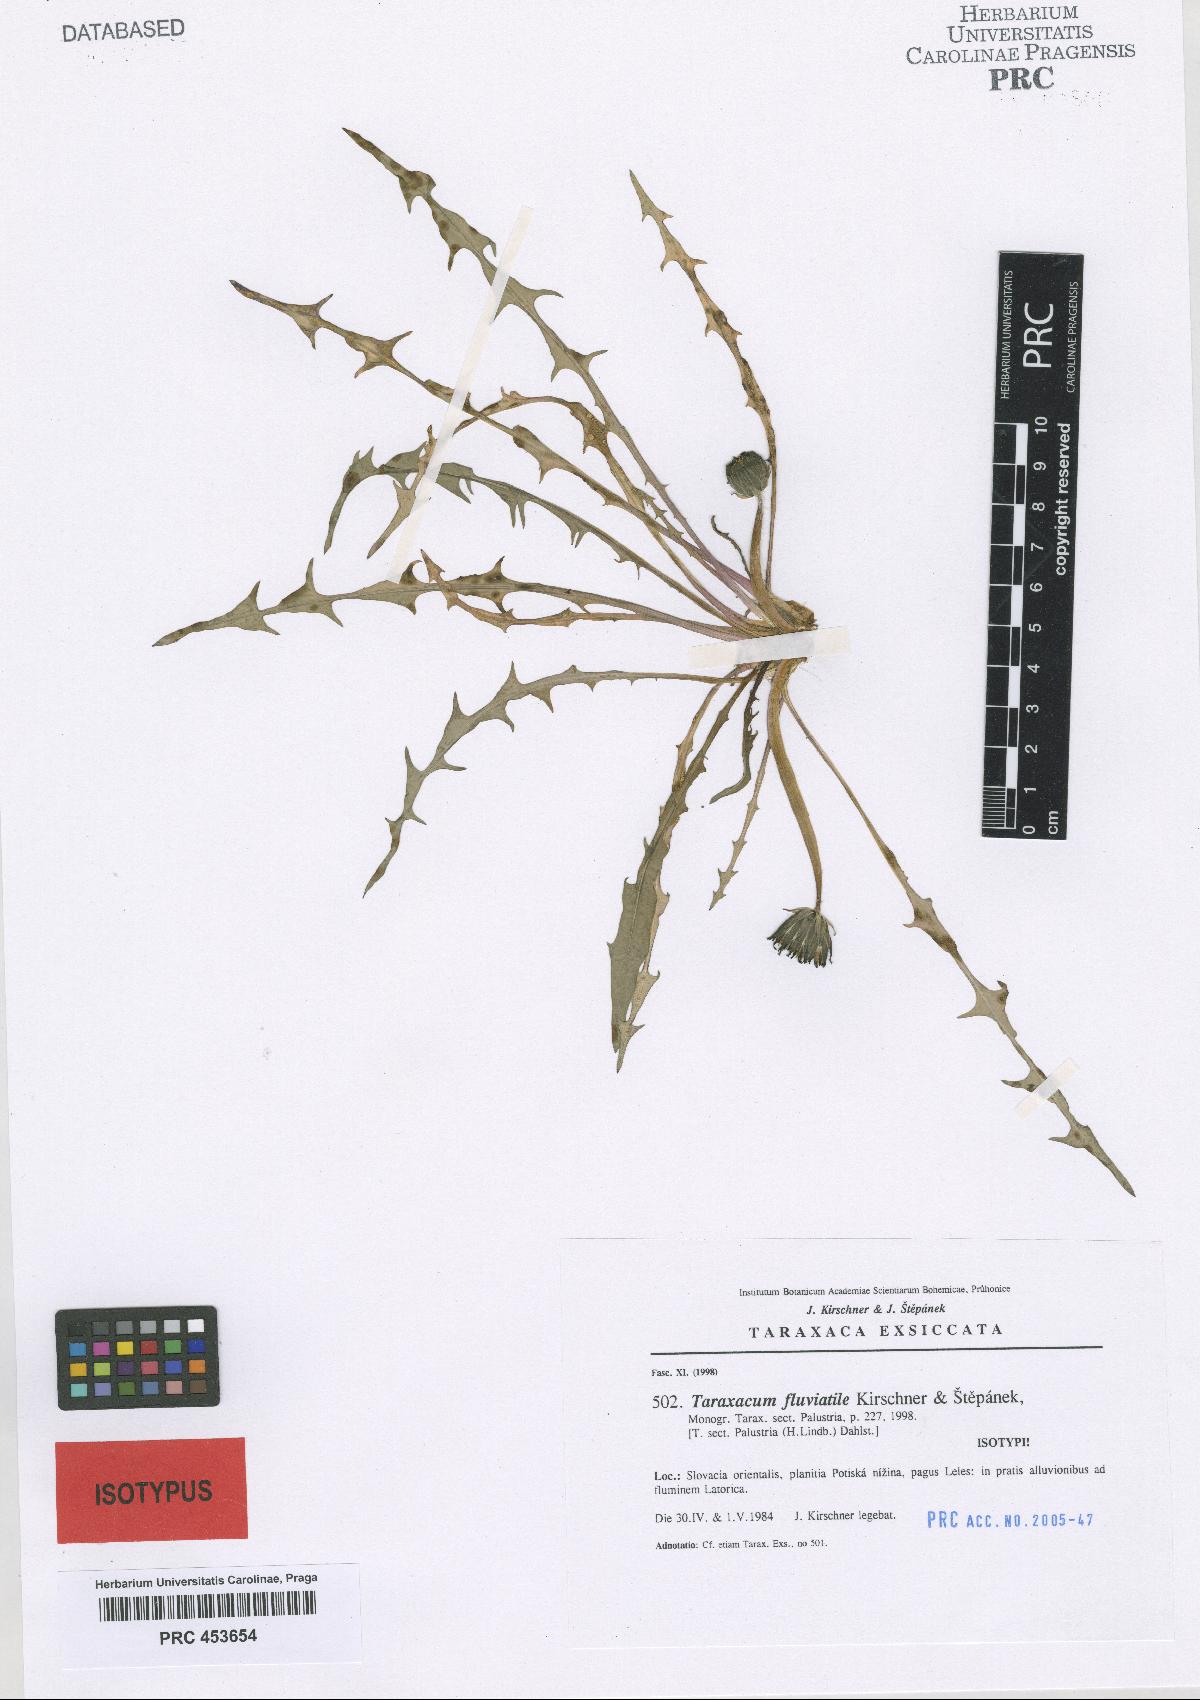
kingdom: Plantae
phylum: Tracheophyta
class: Magnoliopsida
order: Asterales
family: Asteraceae
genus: Taraxacum
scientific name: Taraxacum fluviatile
